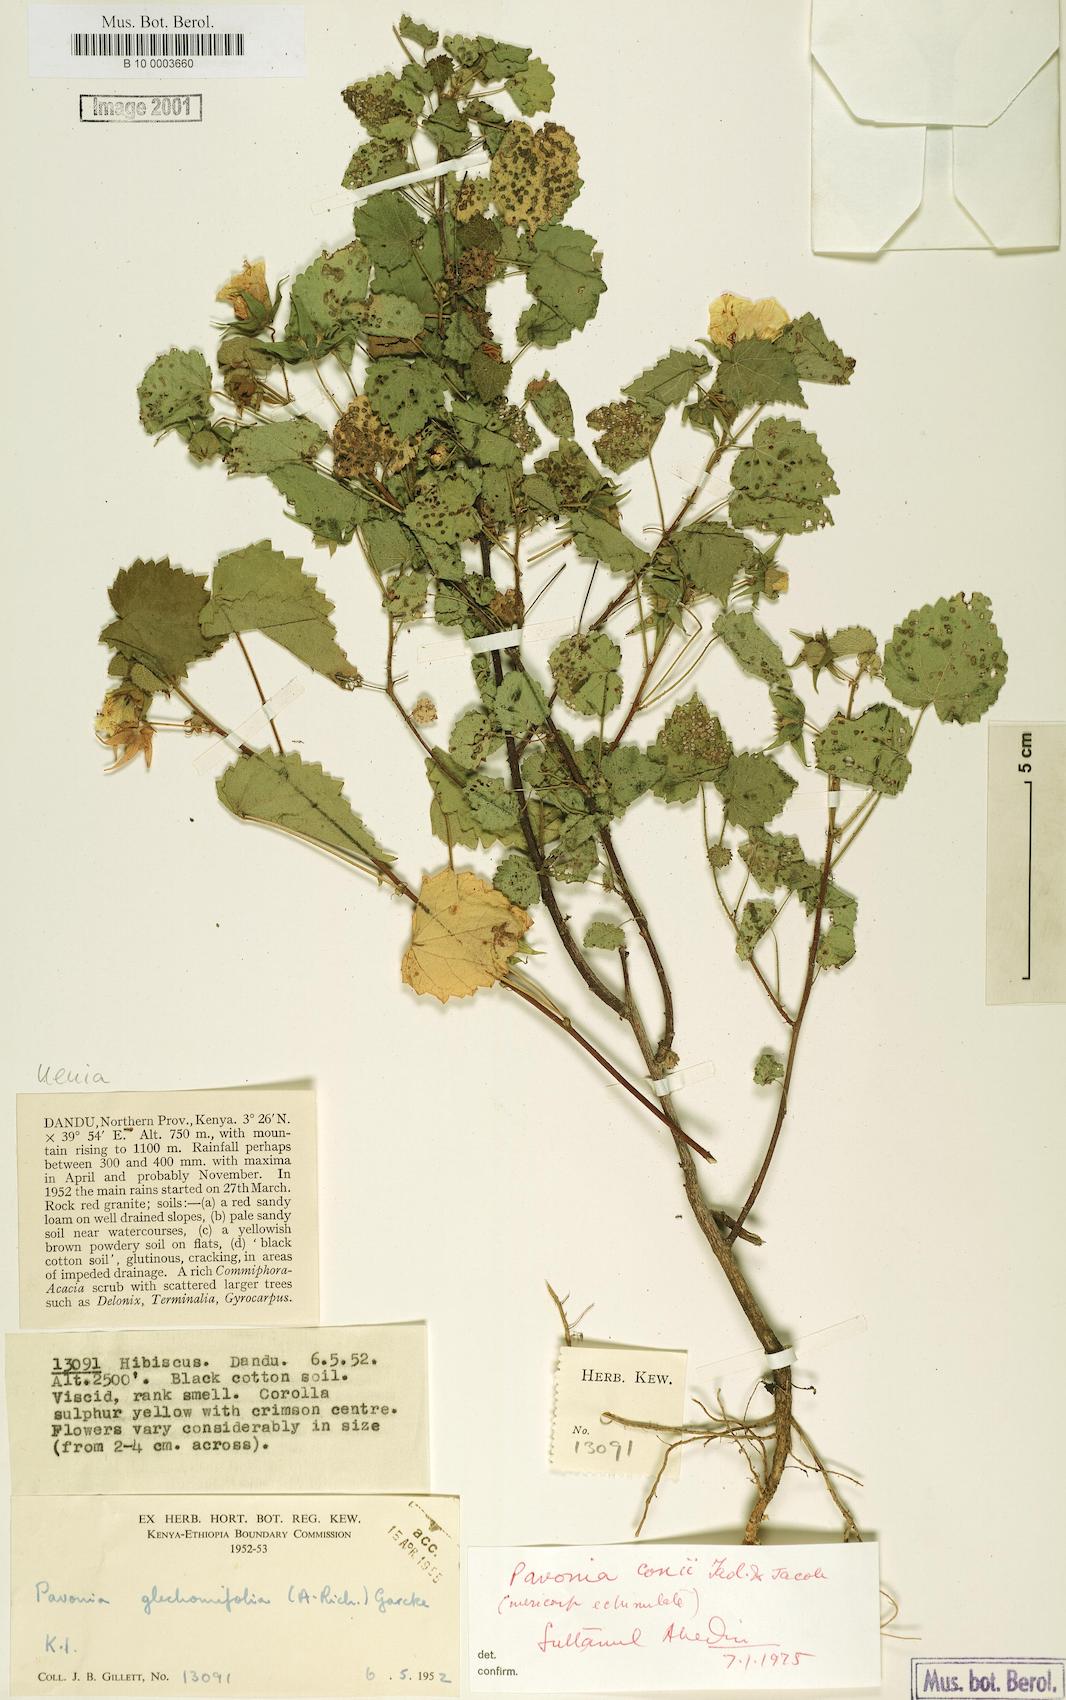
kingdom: Plantae
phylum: Tracheophyta
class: Magnoliopsida
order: Malvales
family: Malvaceae
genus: Pavonia
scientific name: Pavonia flavoferruginea
